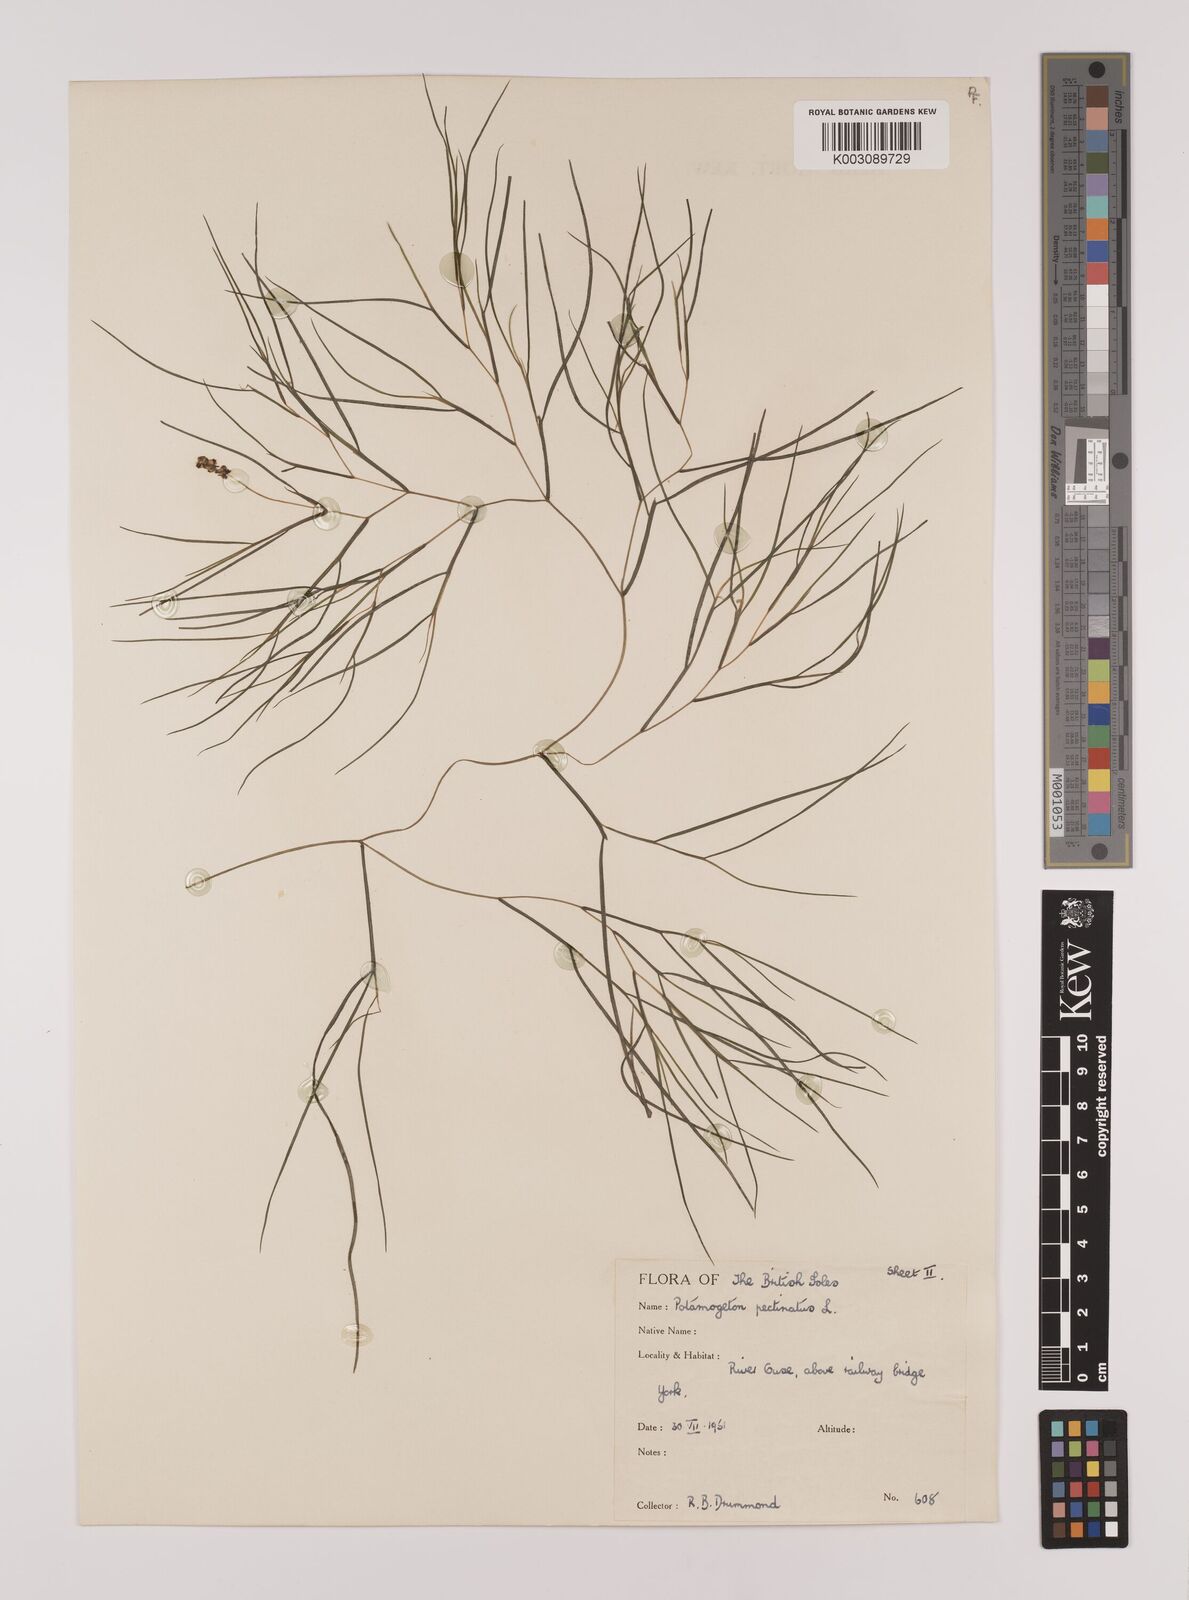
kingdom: Plantae
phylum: Tracheophyta
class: Liliopsida
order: Alismatales
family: Potamogetonaceae
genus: Stuckenia
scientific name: Stuckenia pectinata
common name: Sago pondweed
